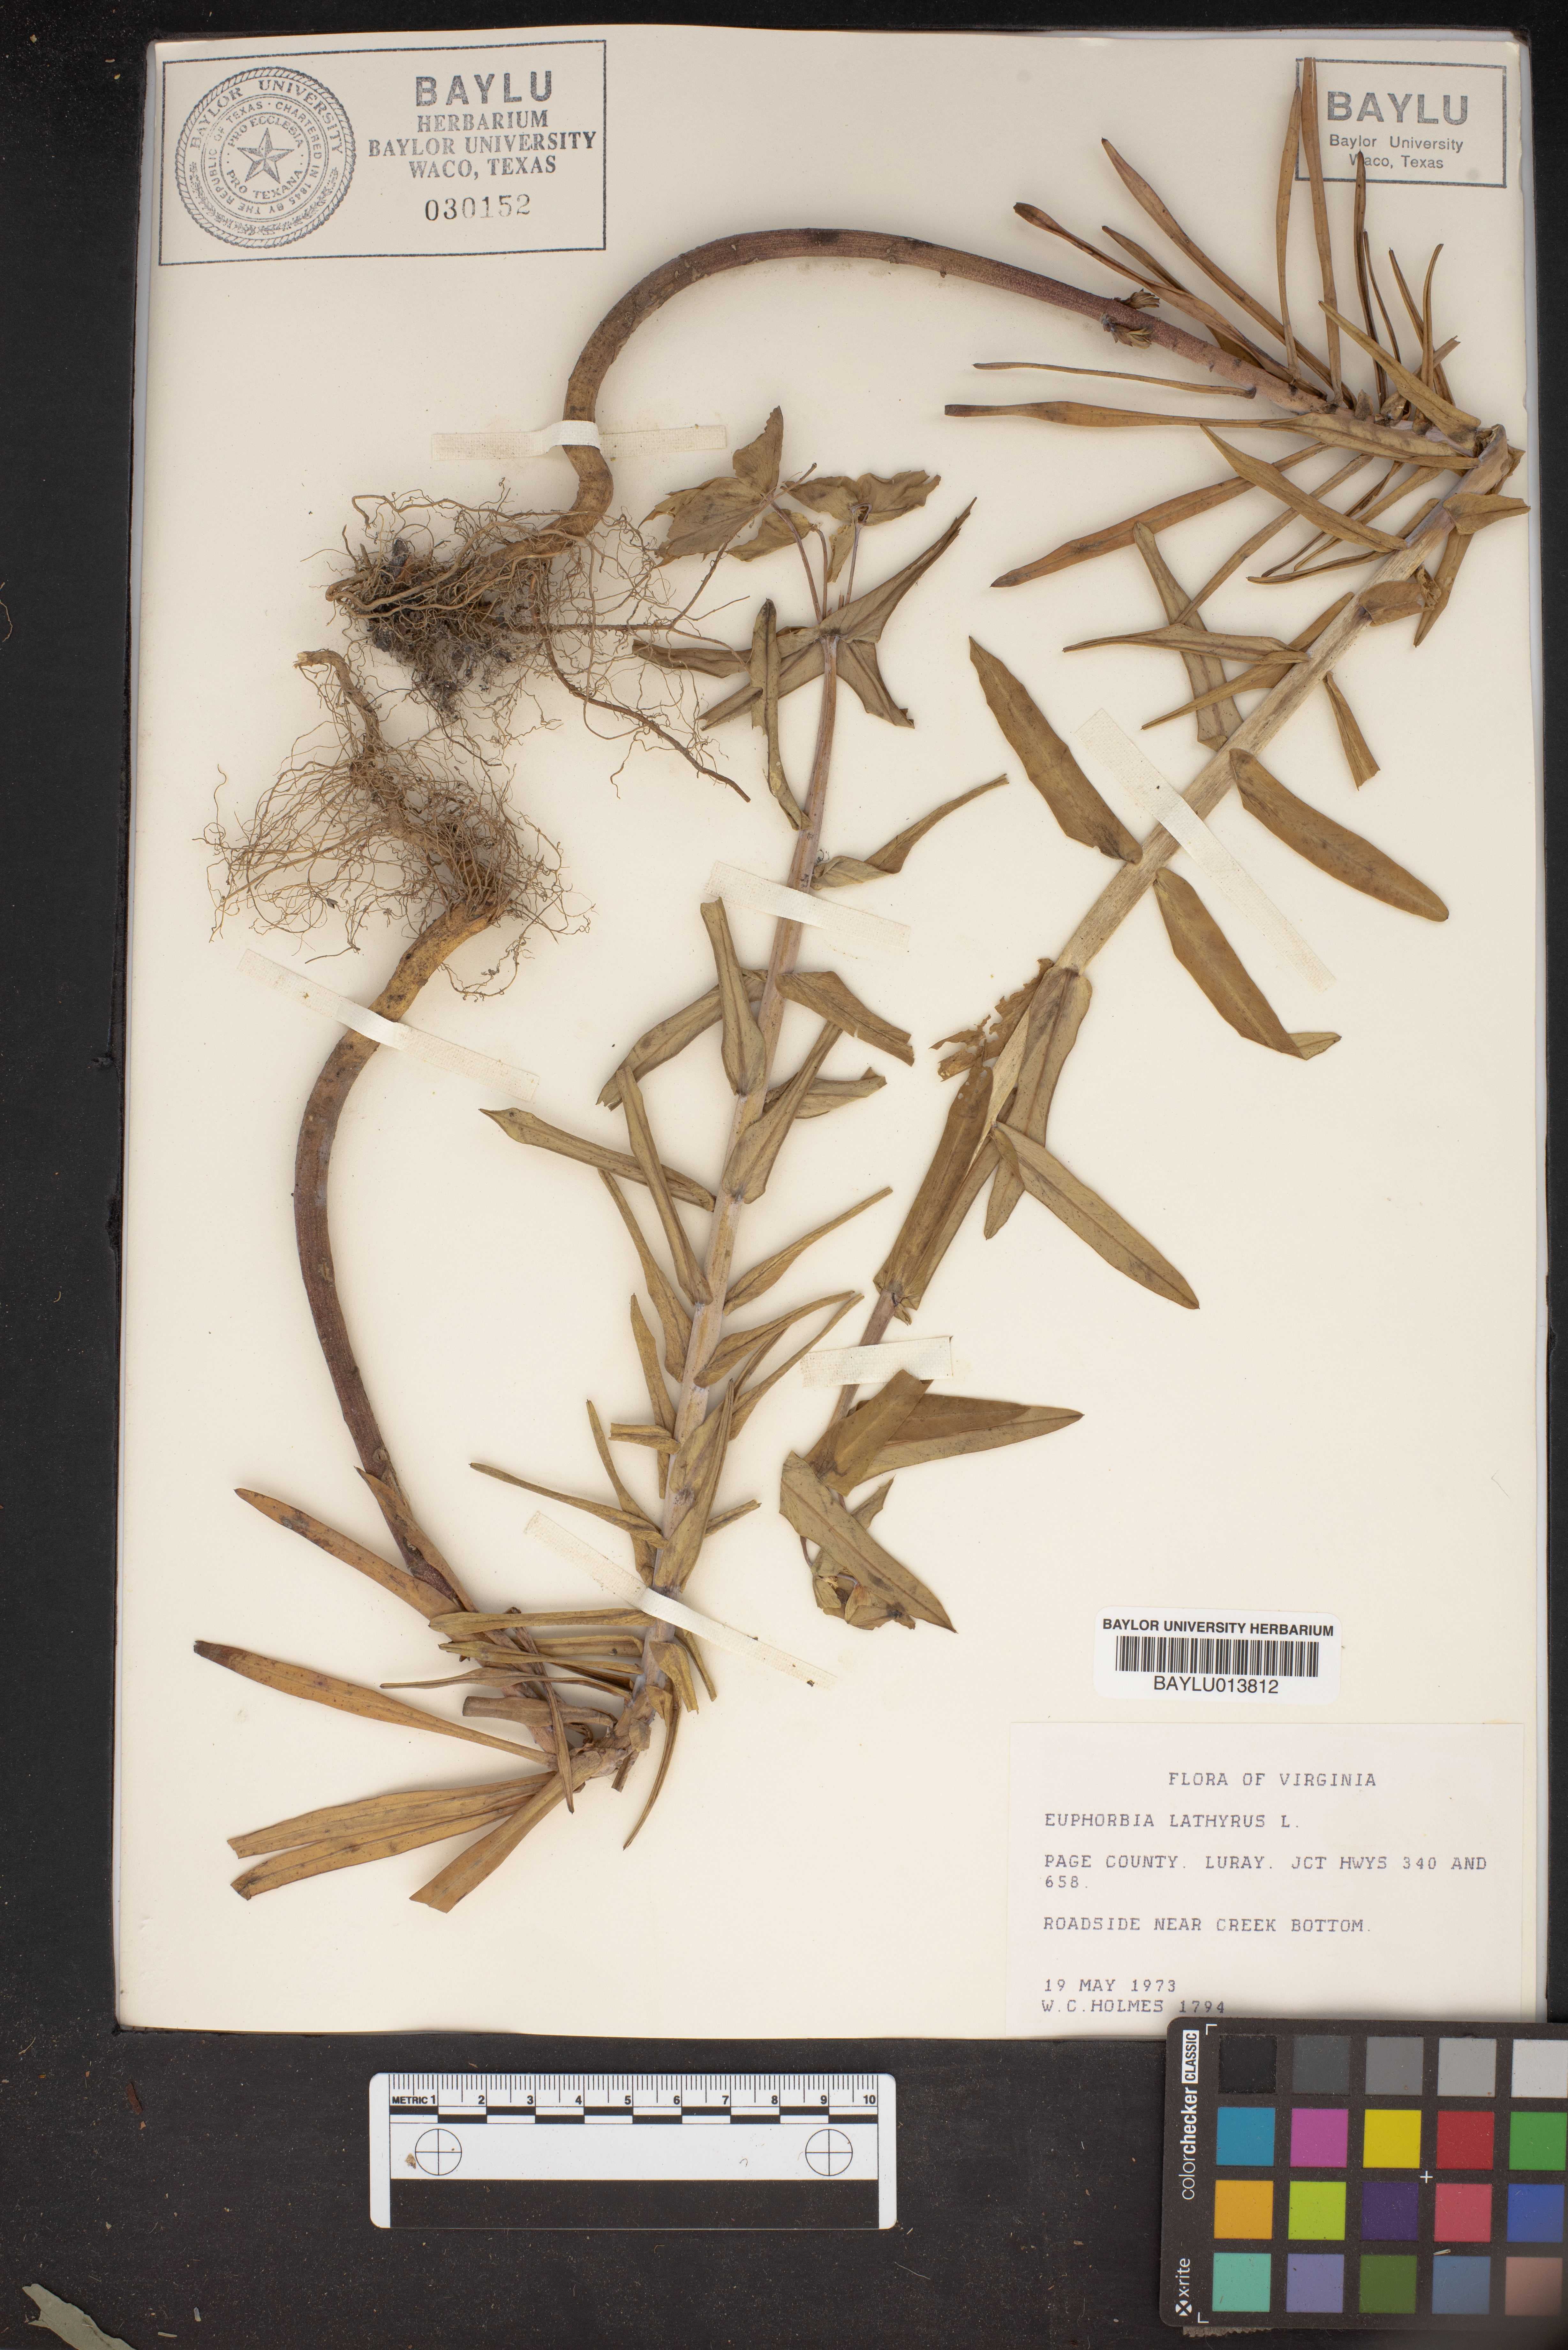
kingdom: Plantae
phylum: Tracheophyta
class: Magnoliopsida
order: Malpighiales
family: Euphorbiaceae
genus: Euphorbia
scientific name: Euphorbia lathyris
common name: Caper spurge
